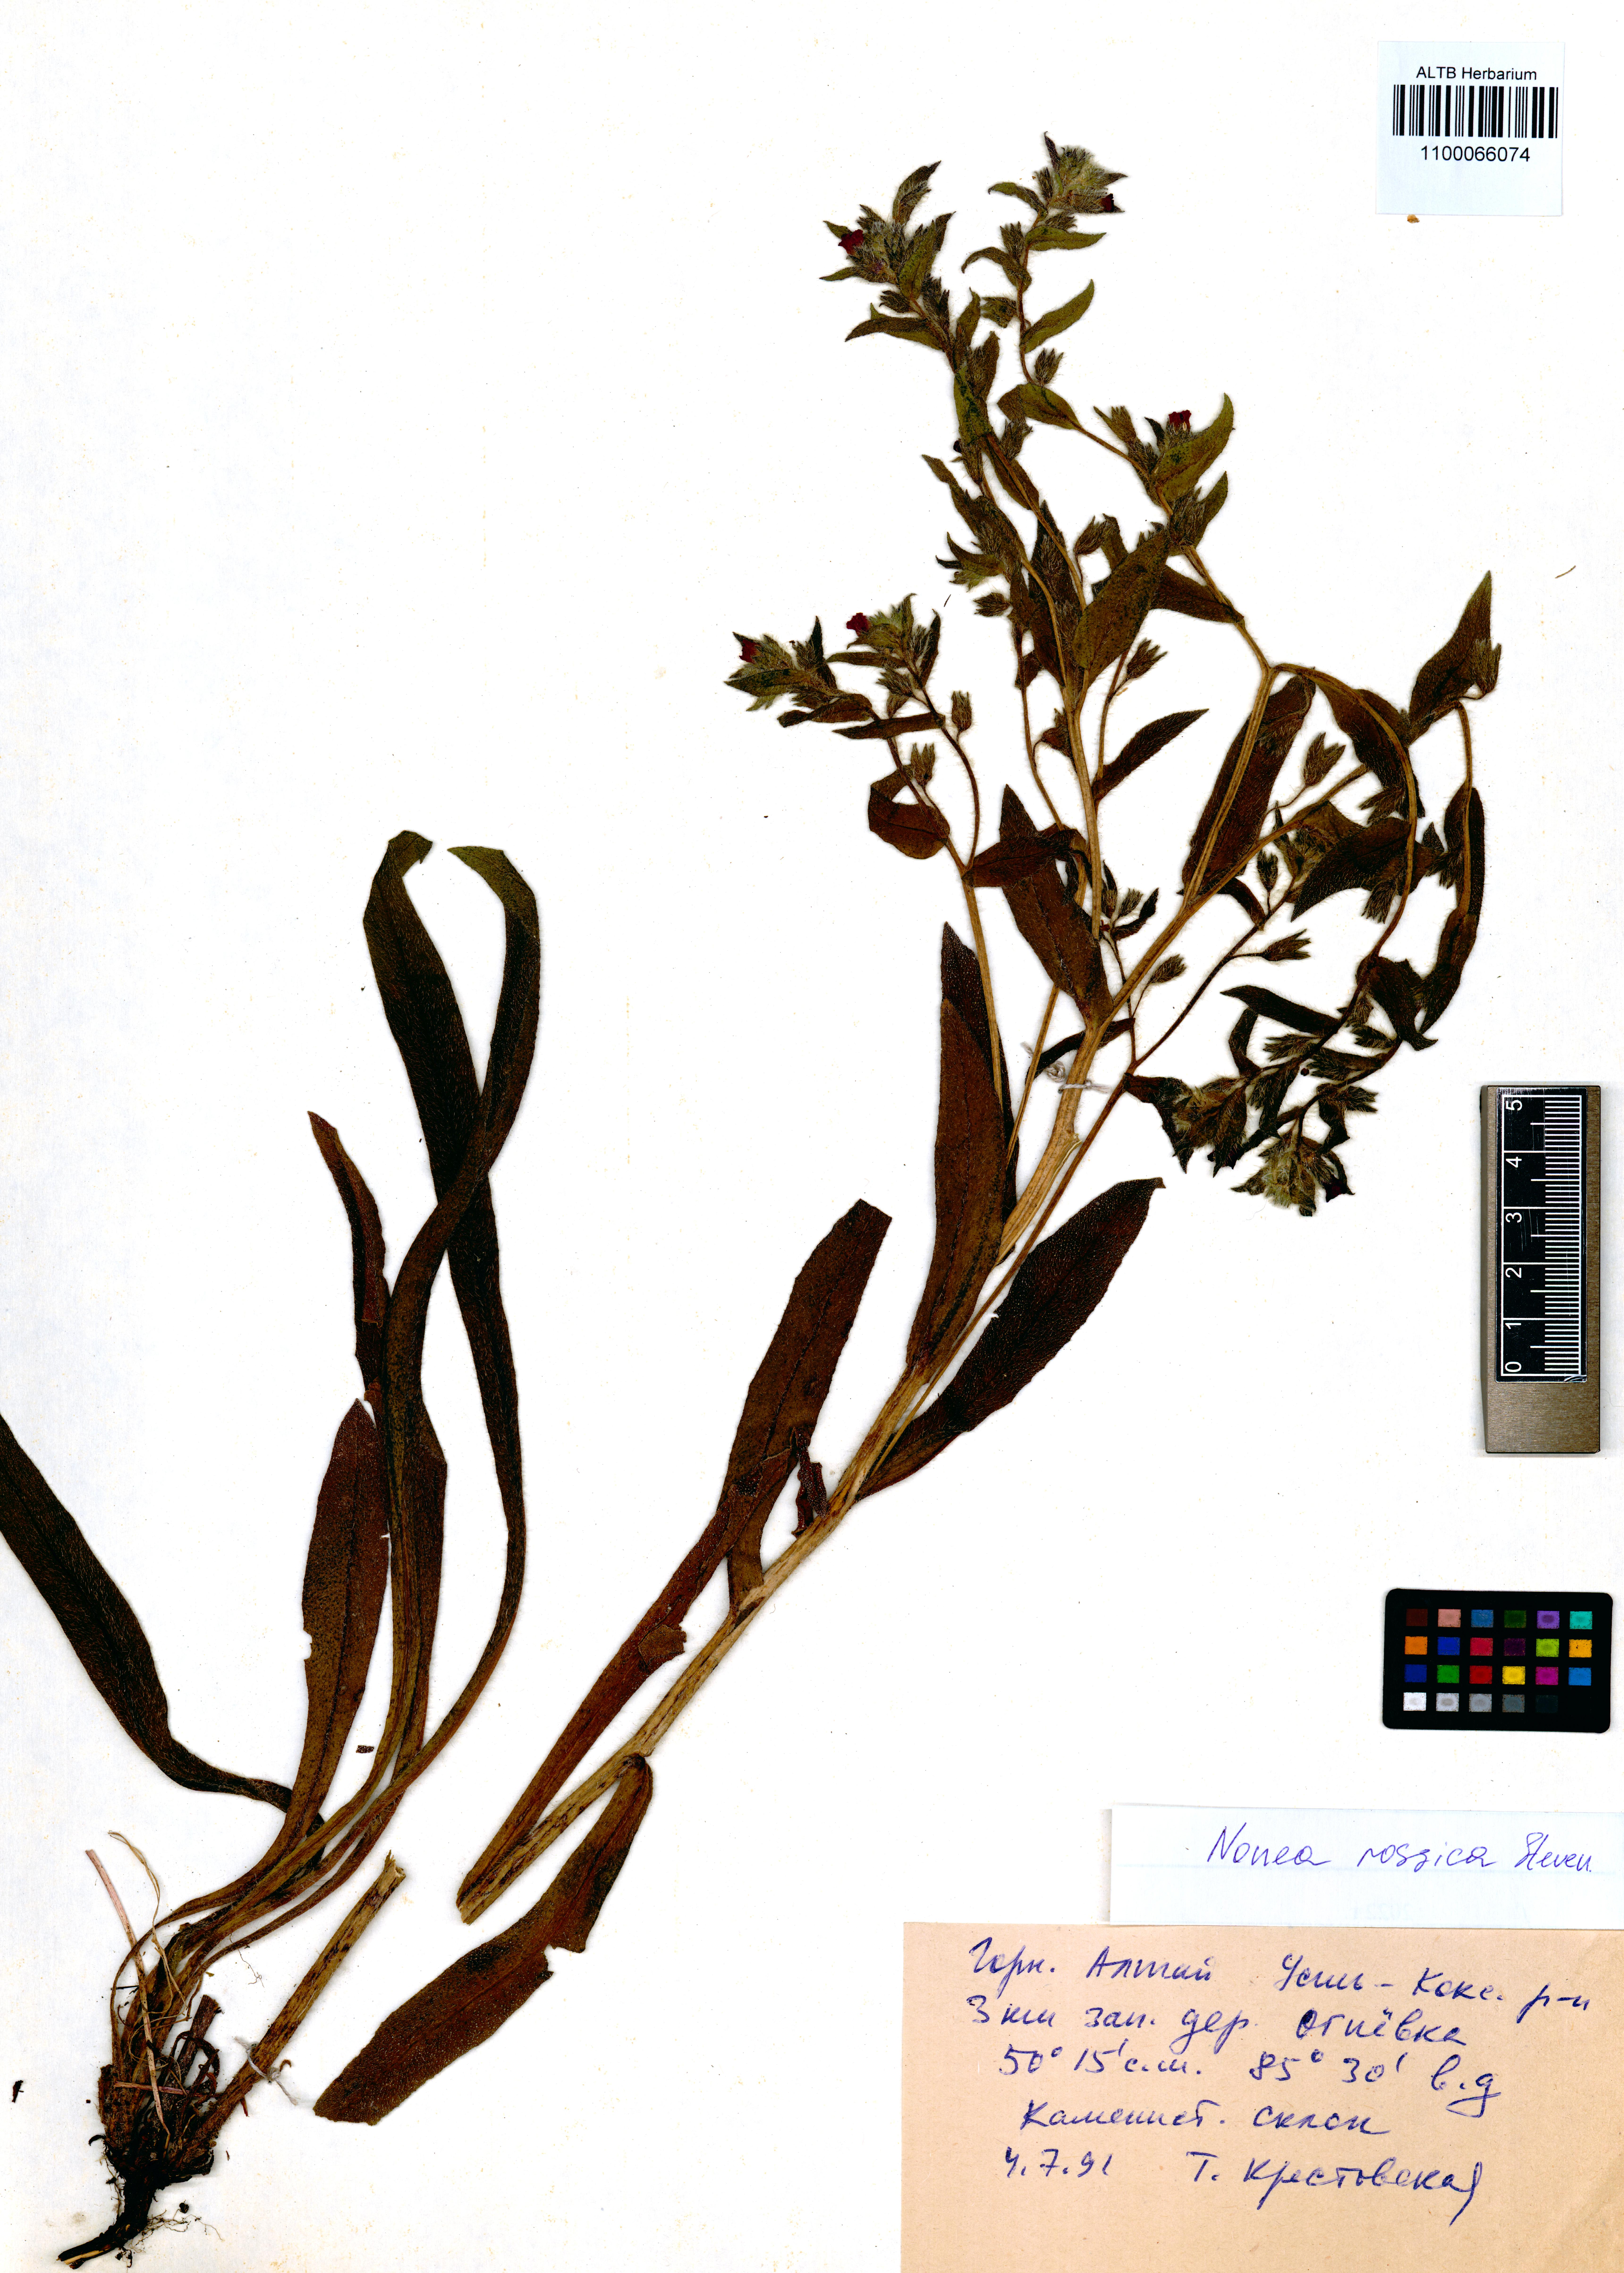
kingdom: Plantae
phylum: Tracheophyta
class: Magnoliopsida
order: Boraginales
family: Boraginaceae
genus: Nonea
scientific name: Nonea pulla
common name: Brown nonea
